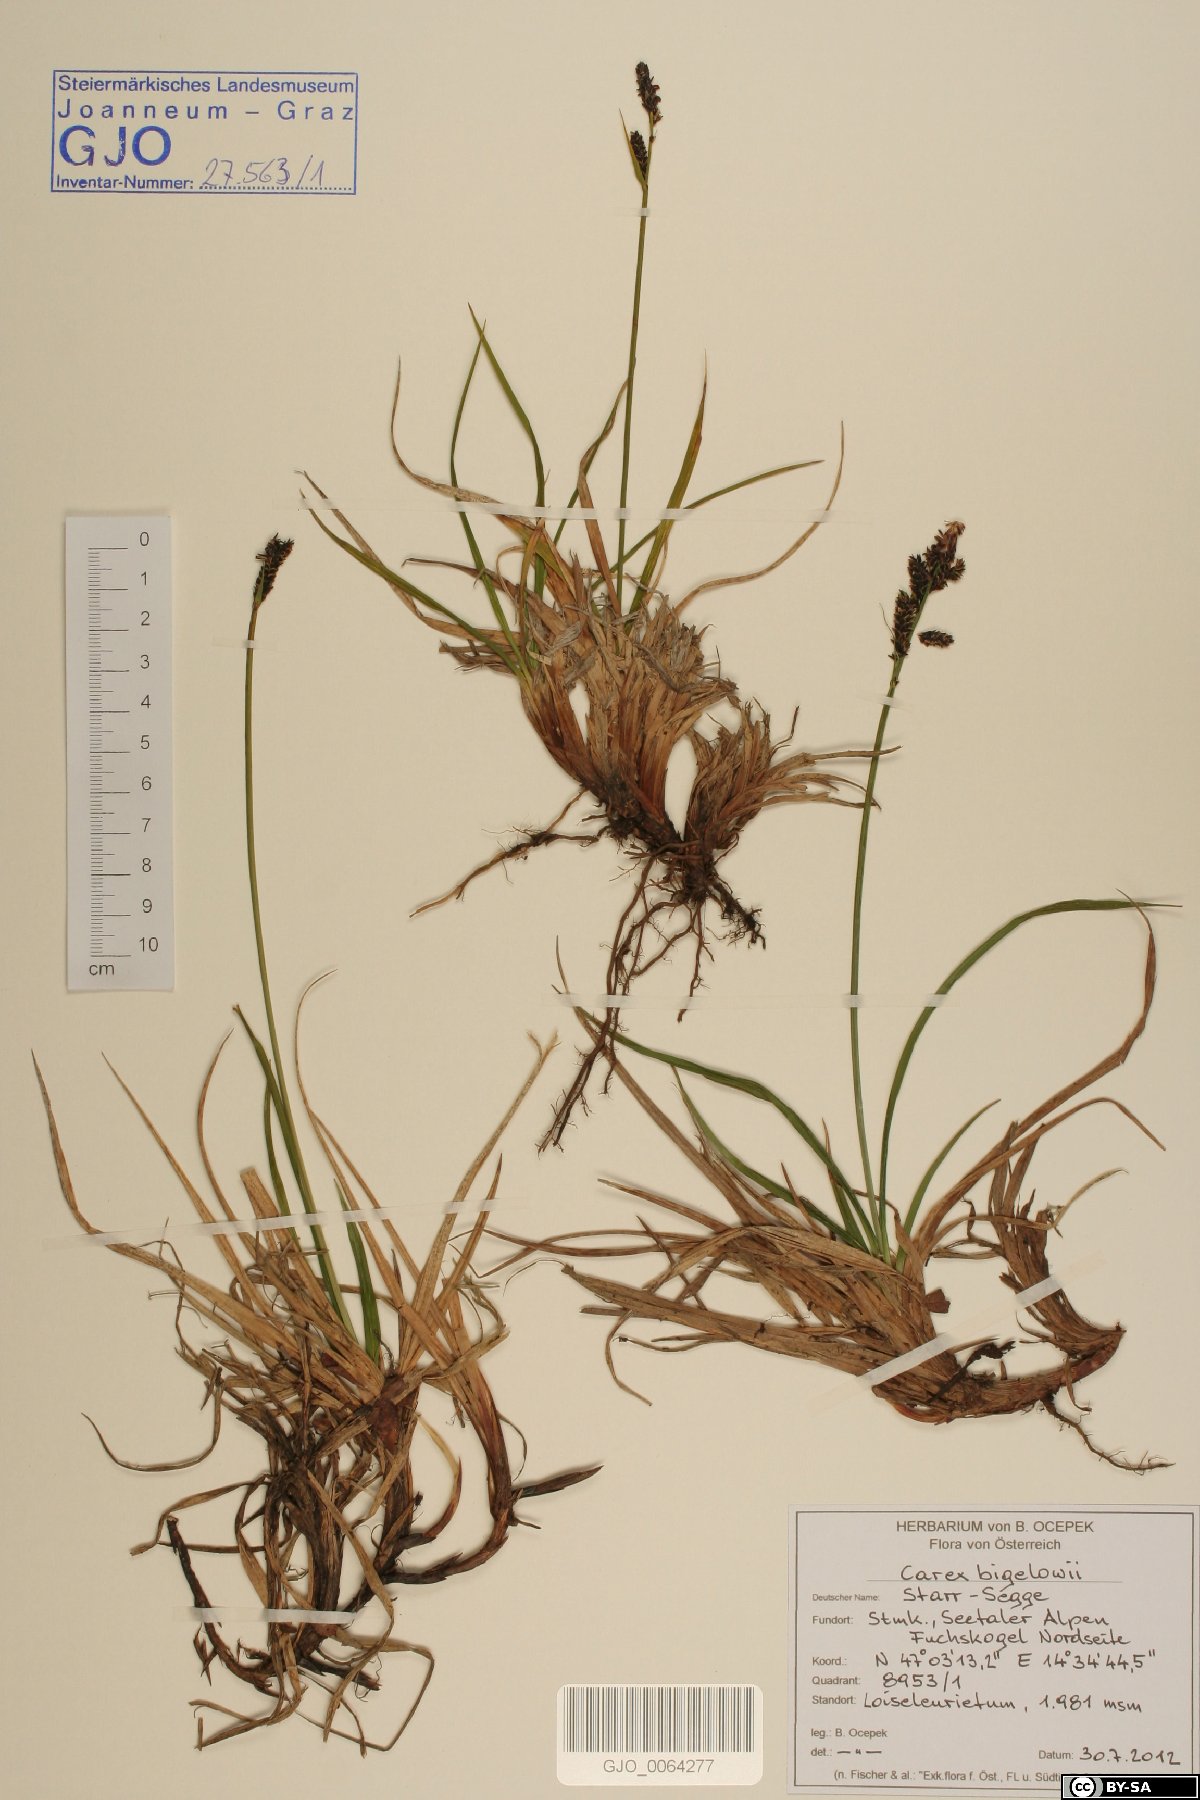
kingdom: Plantae
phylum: Tracheophyta
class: Liliopsida
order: Poales
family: Cyperaceae
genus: Carex
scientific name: Carex bigelowii
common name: Stiff sedge
